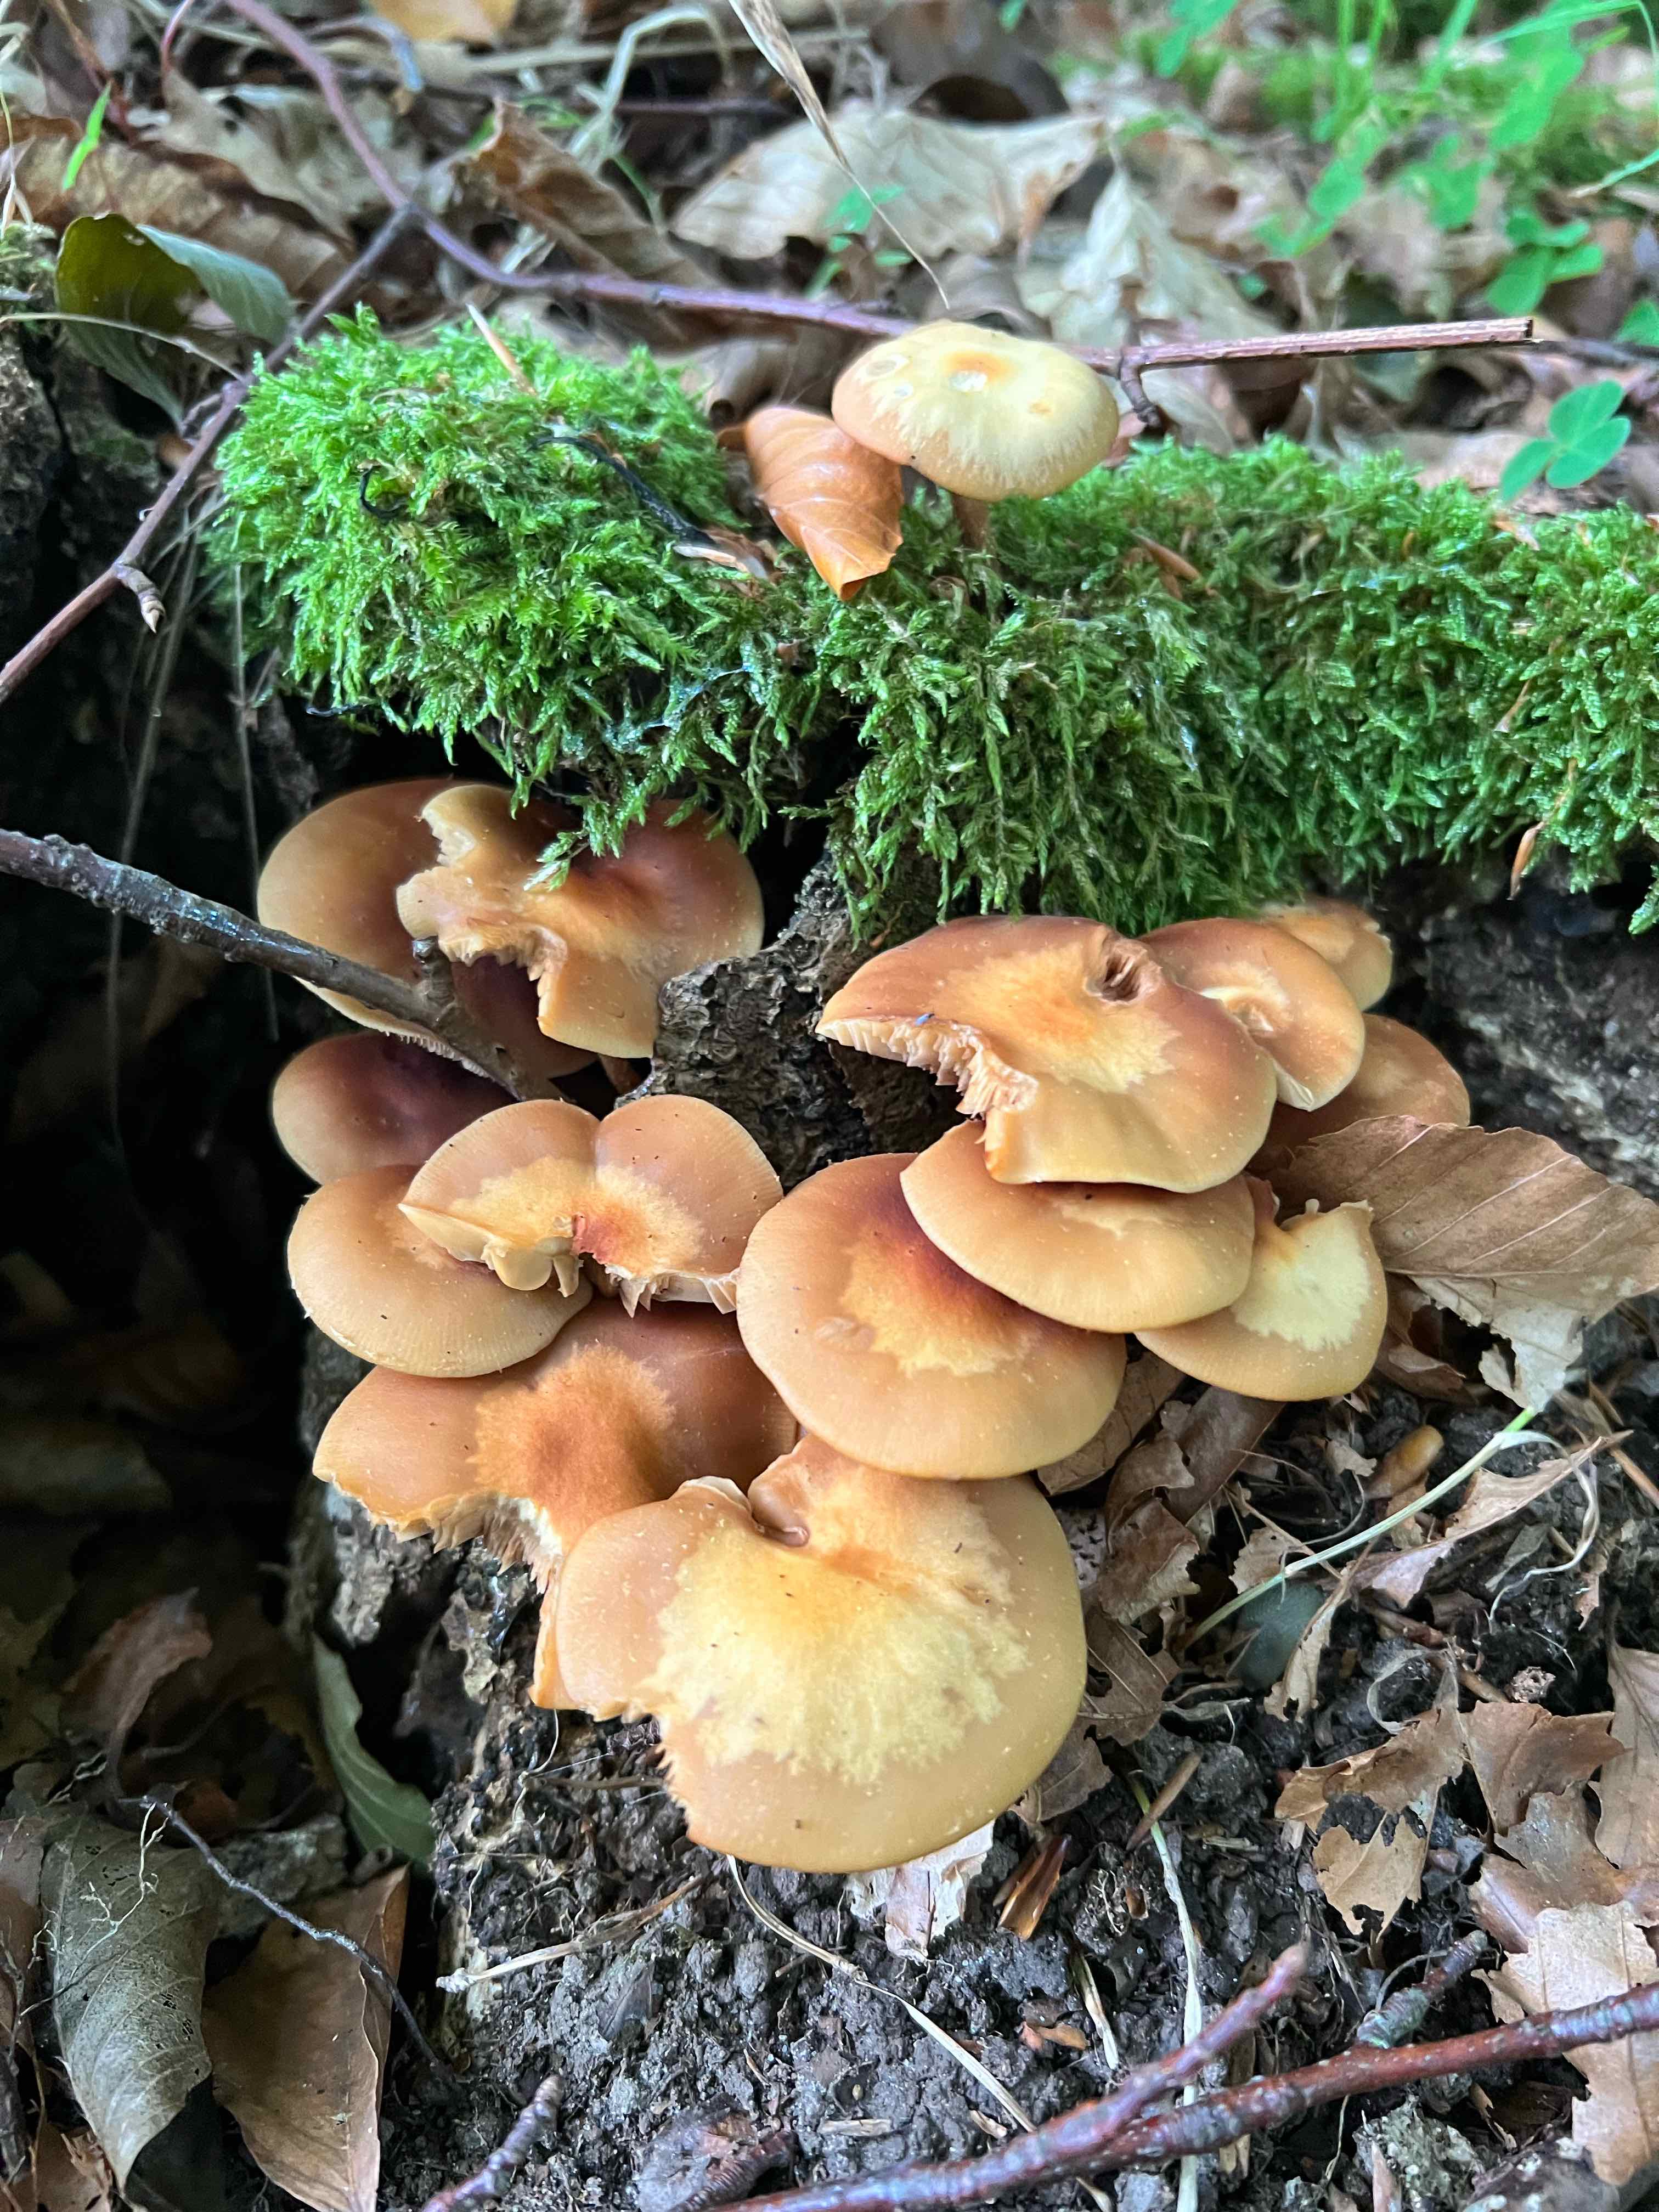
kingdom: Fungi
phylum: Basidiomycota
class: Agaricomycetes
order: Agaricales
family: Strophariaceae
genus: Kuehneromyces
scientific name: Kuehneromyces mutabilis
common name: foranderlig skælhat
